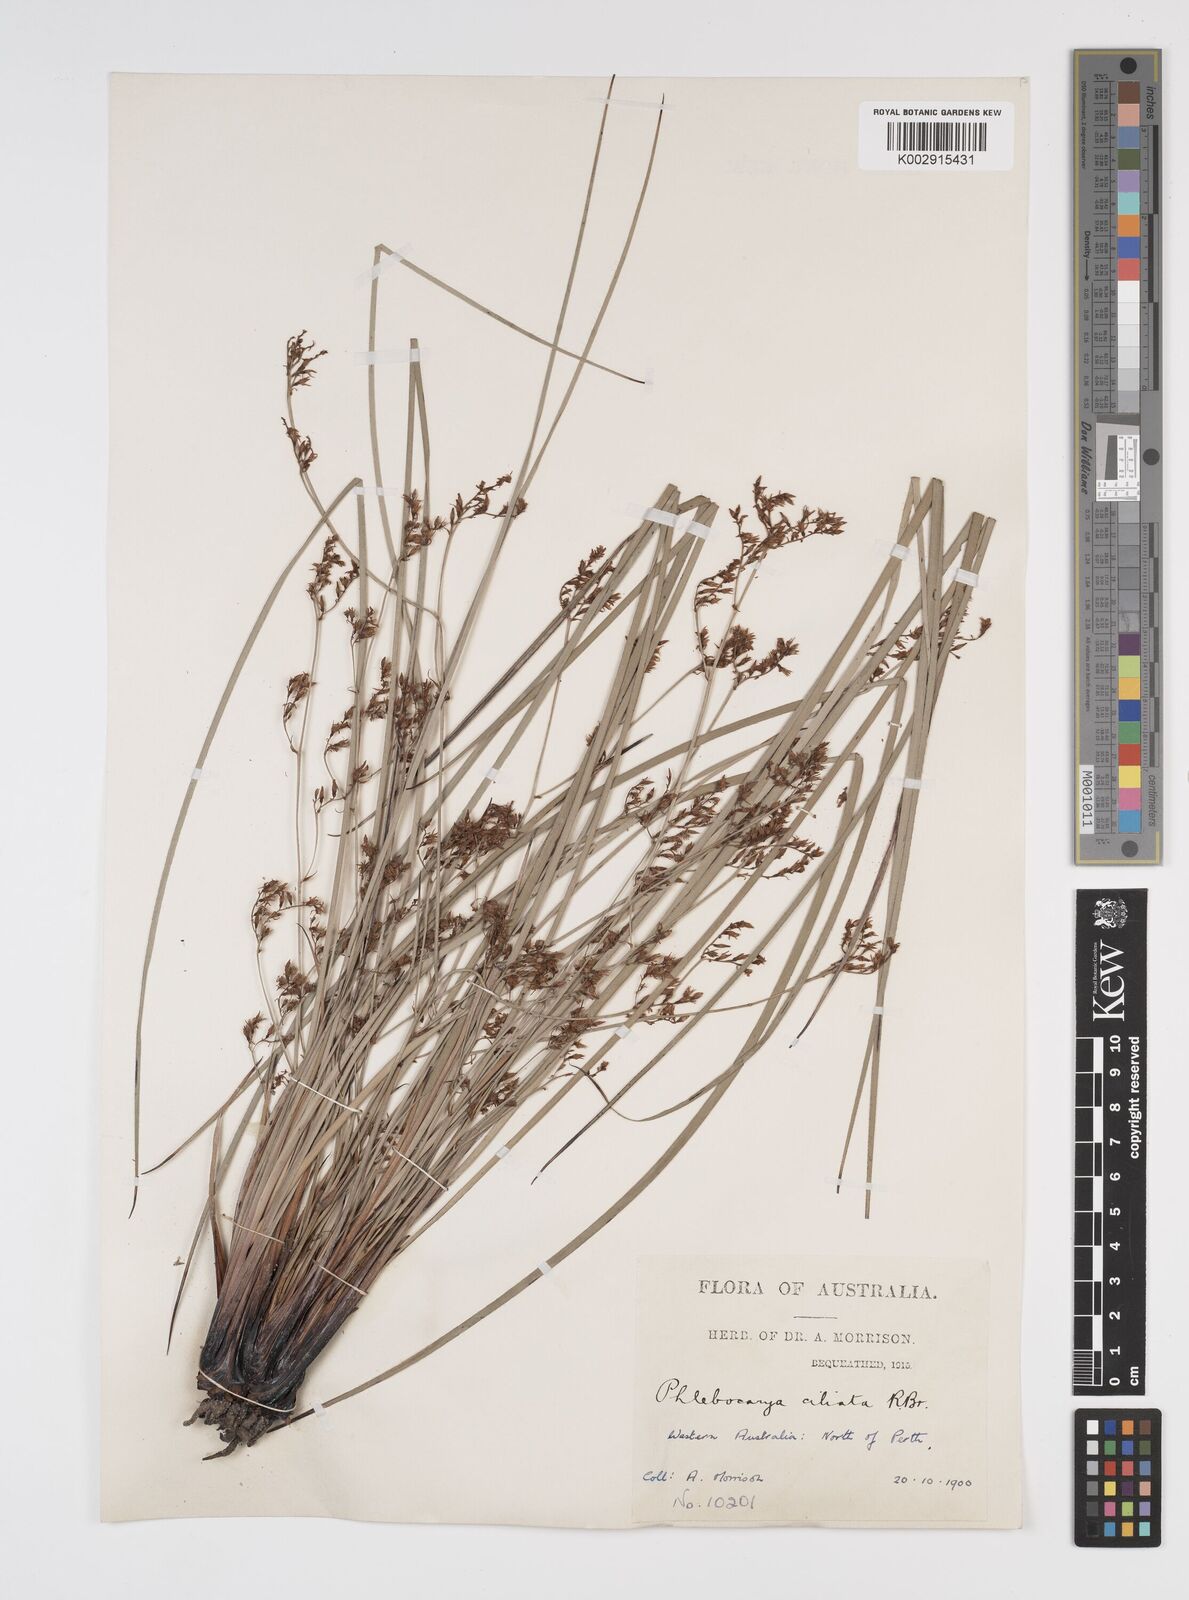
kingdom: Plantae
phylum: Tracheophyta
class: Liliopsida
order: Commelinales
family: Haemodoraceae
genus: Phlebocarya
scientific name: Phlebocarya ciliata
